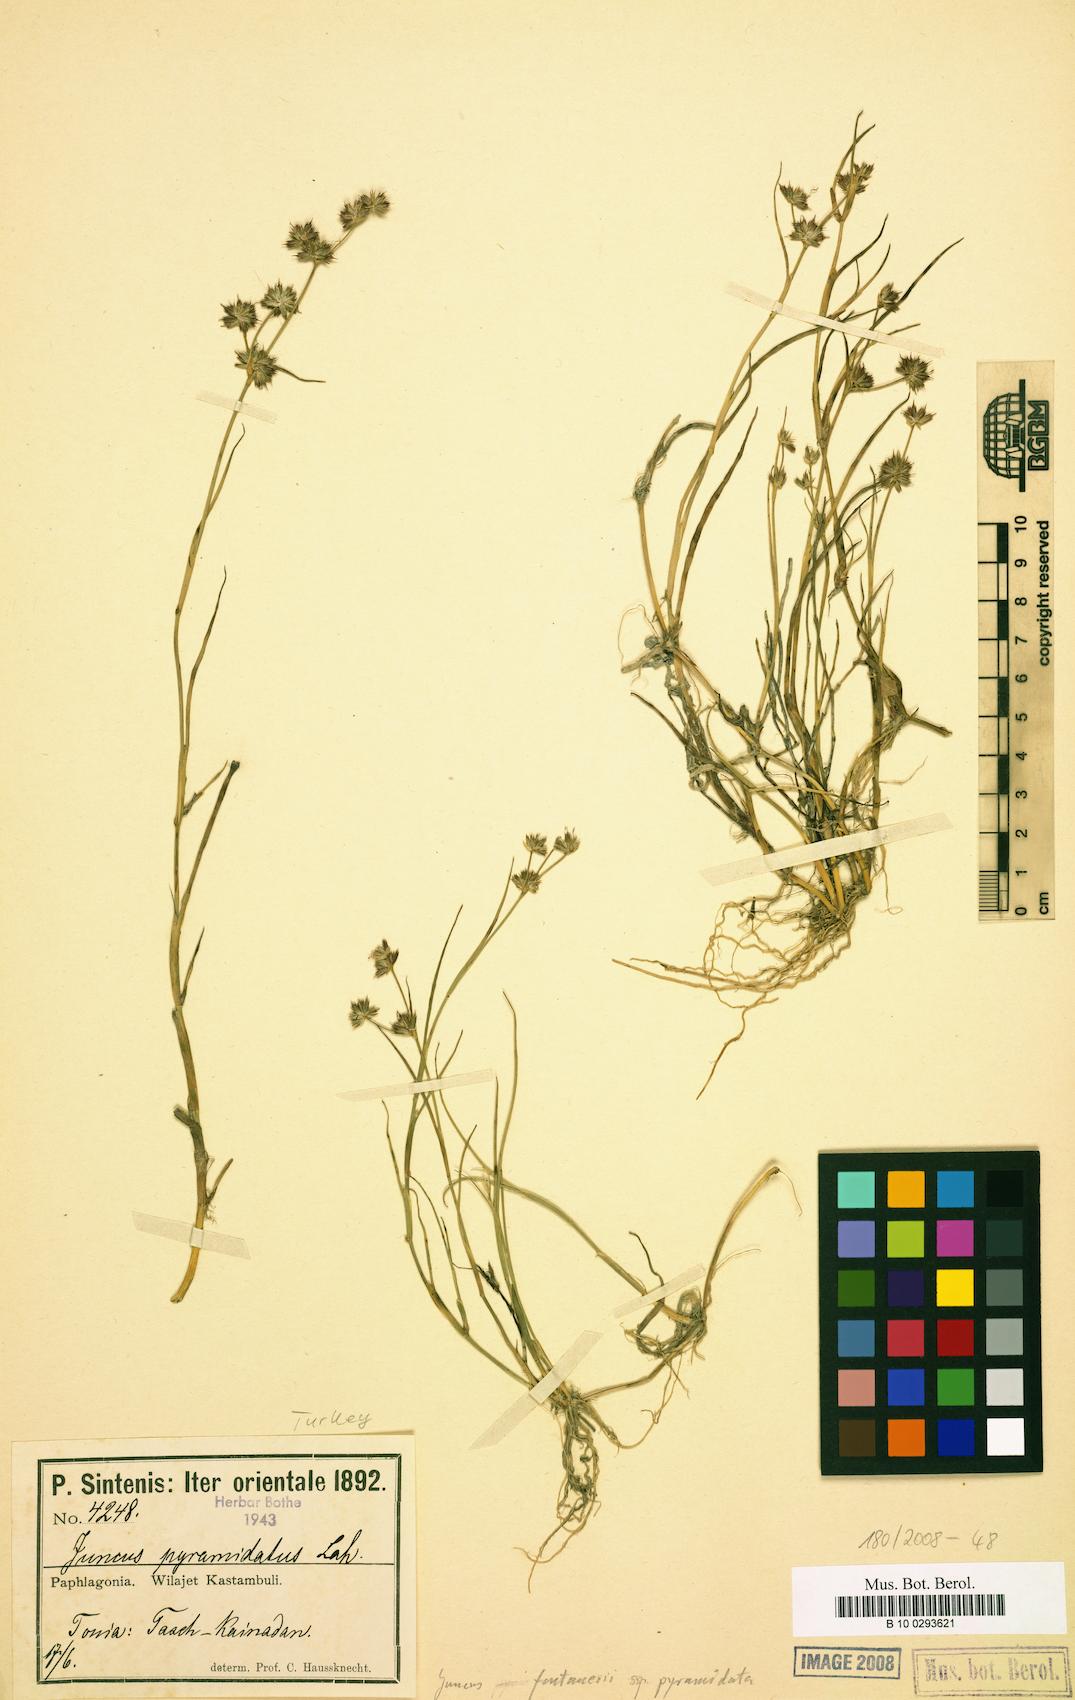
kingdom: Plantae
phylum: Tracheophyta
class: Liliopsida
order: Poales
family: Juncaceae
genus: Juncus
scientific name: Juncus fontanesii
